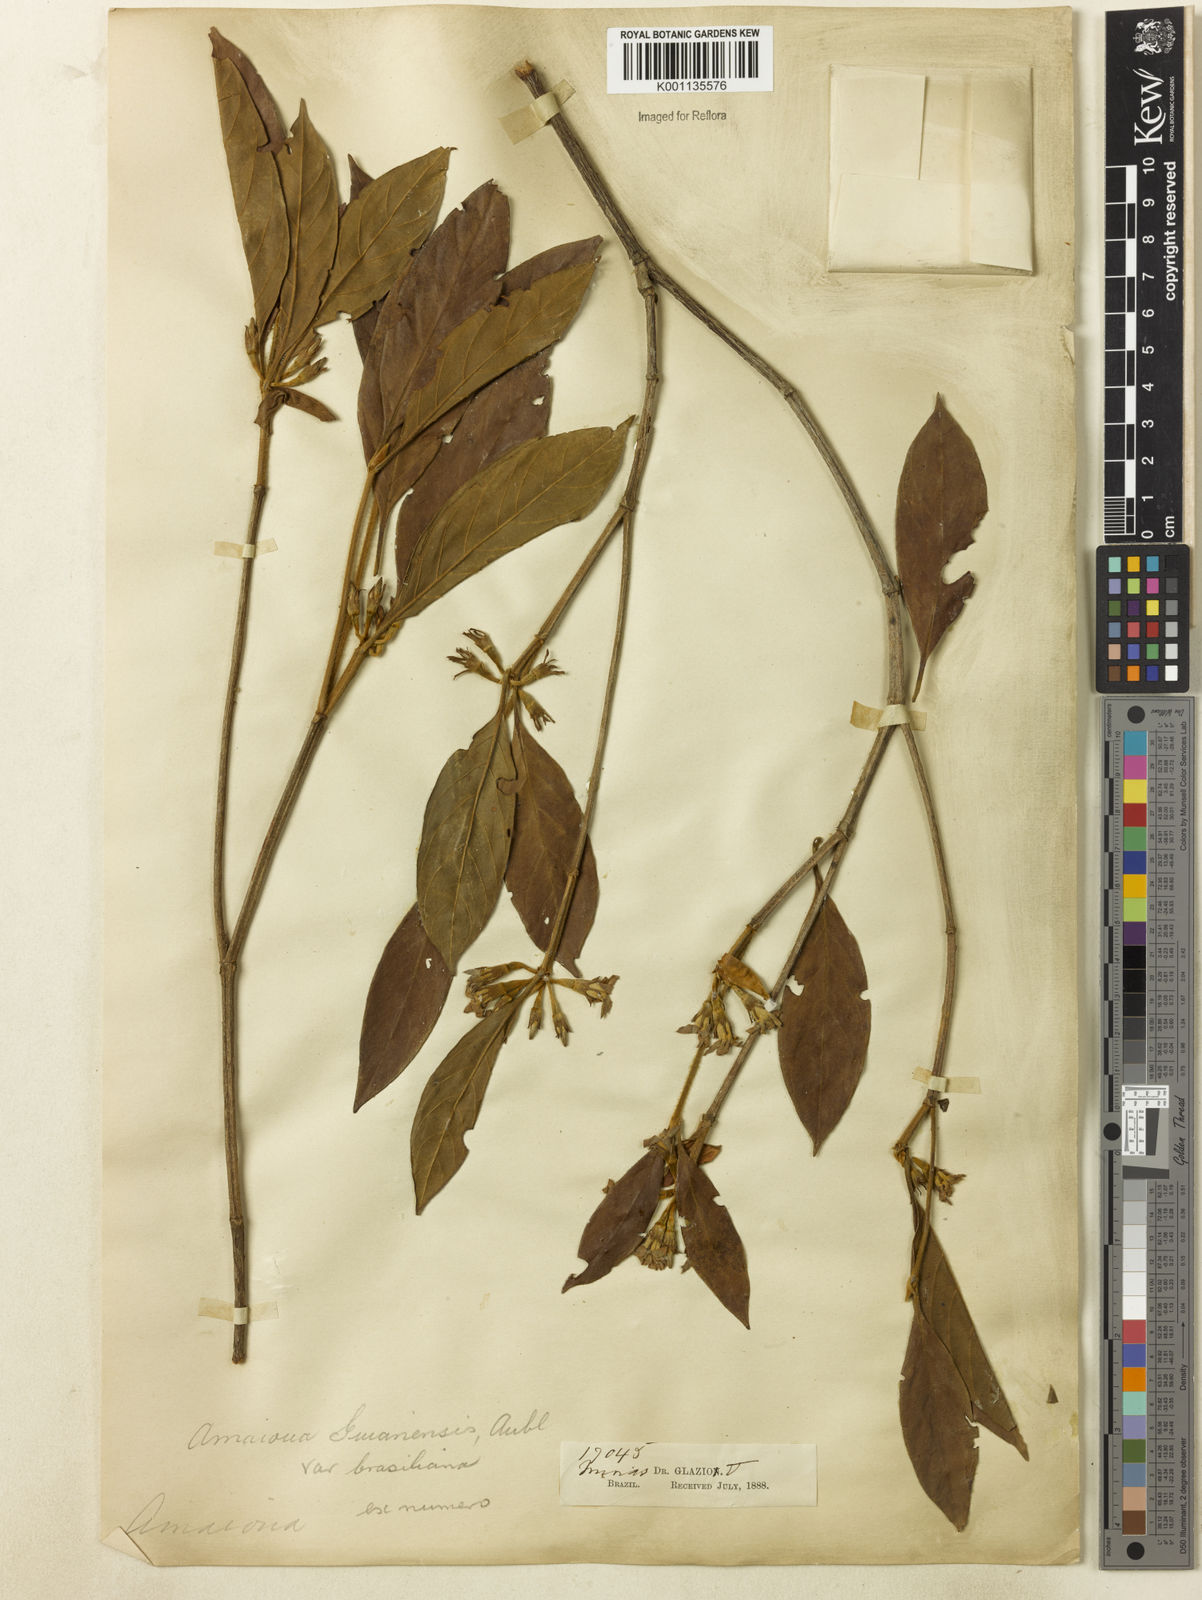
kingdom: Plantae
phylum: Tracheophyta
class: Magnoliopsida
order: Gentianales
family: Rubiaceae
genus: Amaioua
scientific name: Amaioua intermedia
